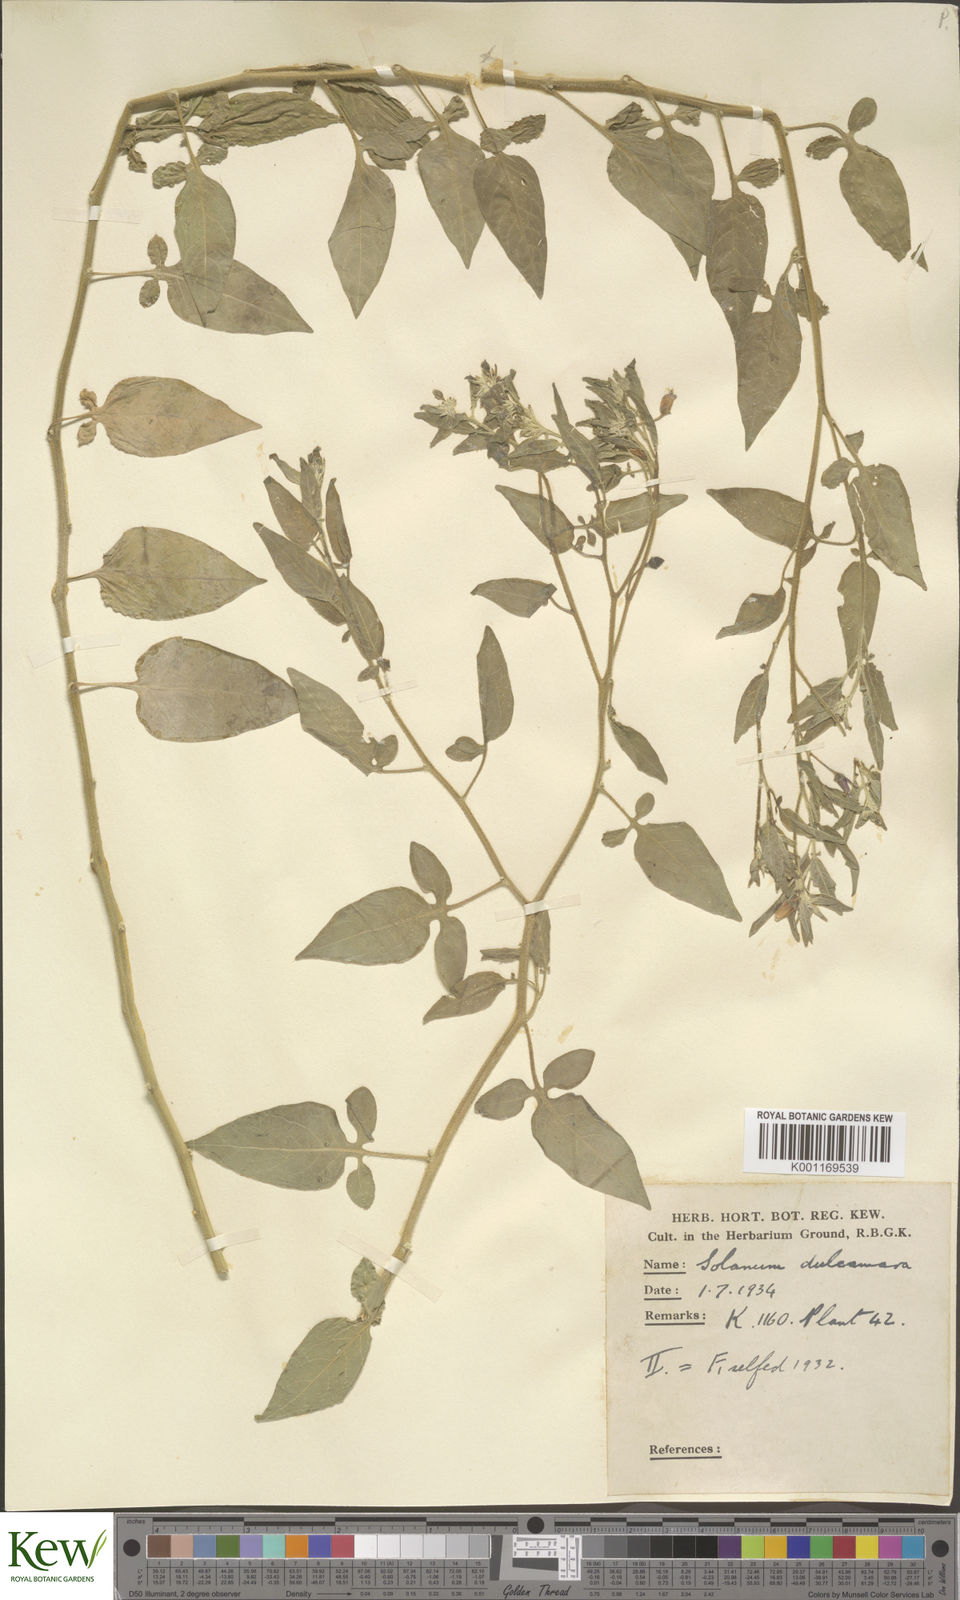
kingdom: Plantae
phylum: Tracheophyta
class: Magnoliopsida
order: Solanales
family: Solanaceae
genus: Solanum
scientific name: Solanum dulcamara
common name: Climbing nightshade
